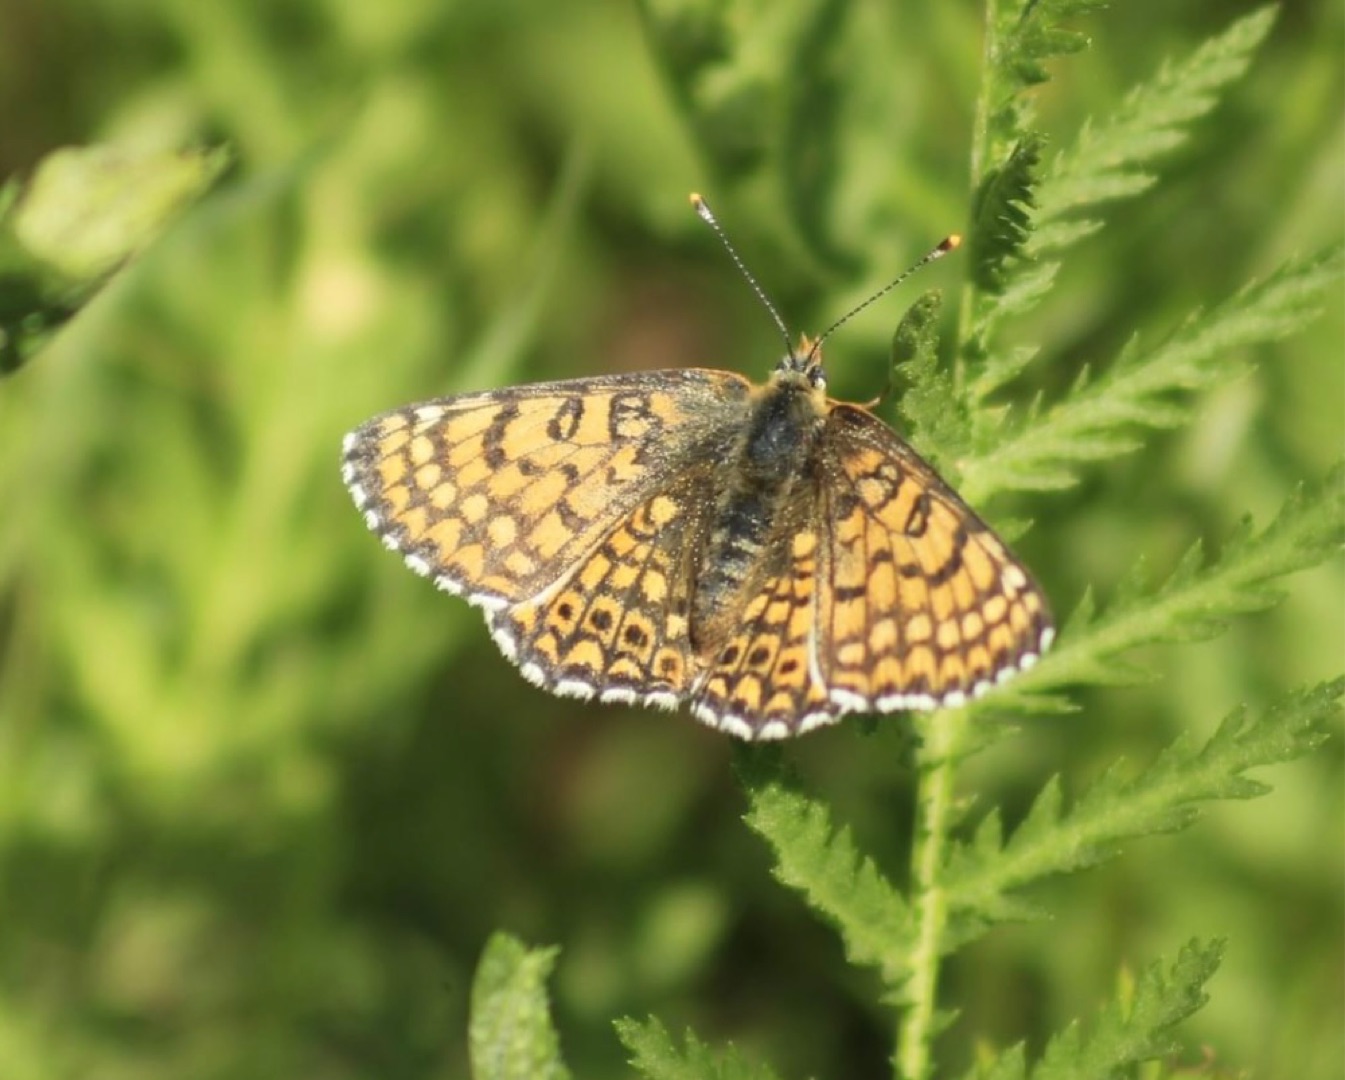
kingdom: Animalia
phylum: Arthropoda
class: Insecta
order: Lepidoptera
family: Nymphalidae
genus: Melitaea
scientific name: Melitaea cinxia
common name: Okkergul pletvinge
